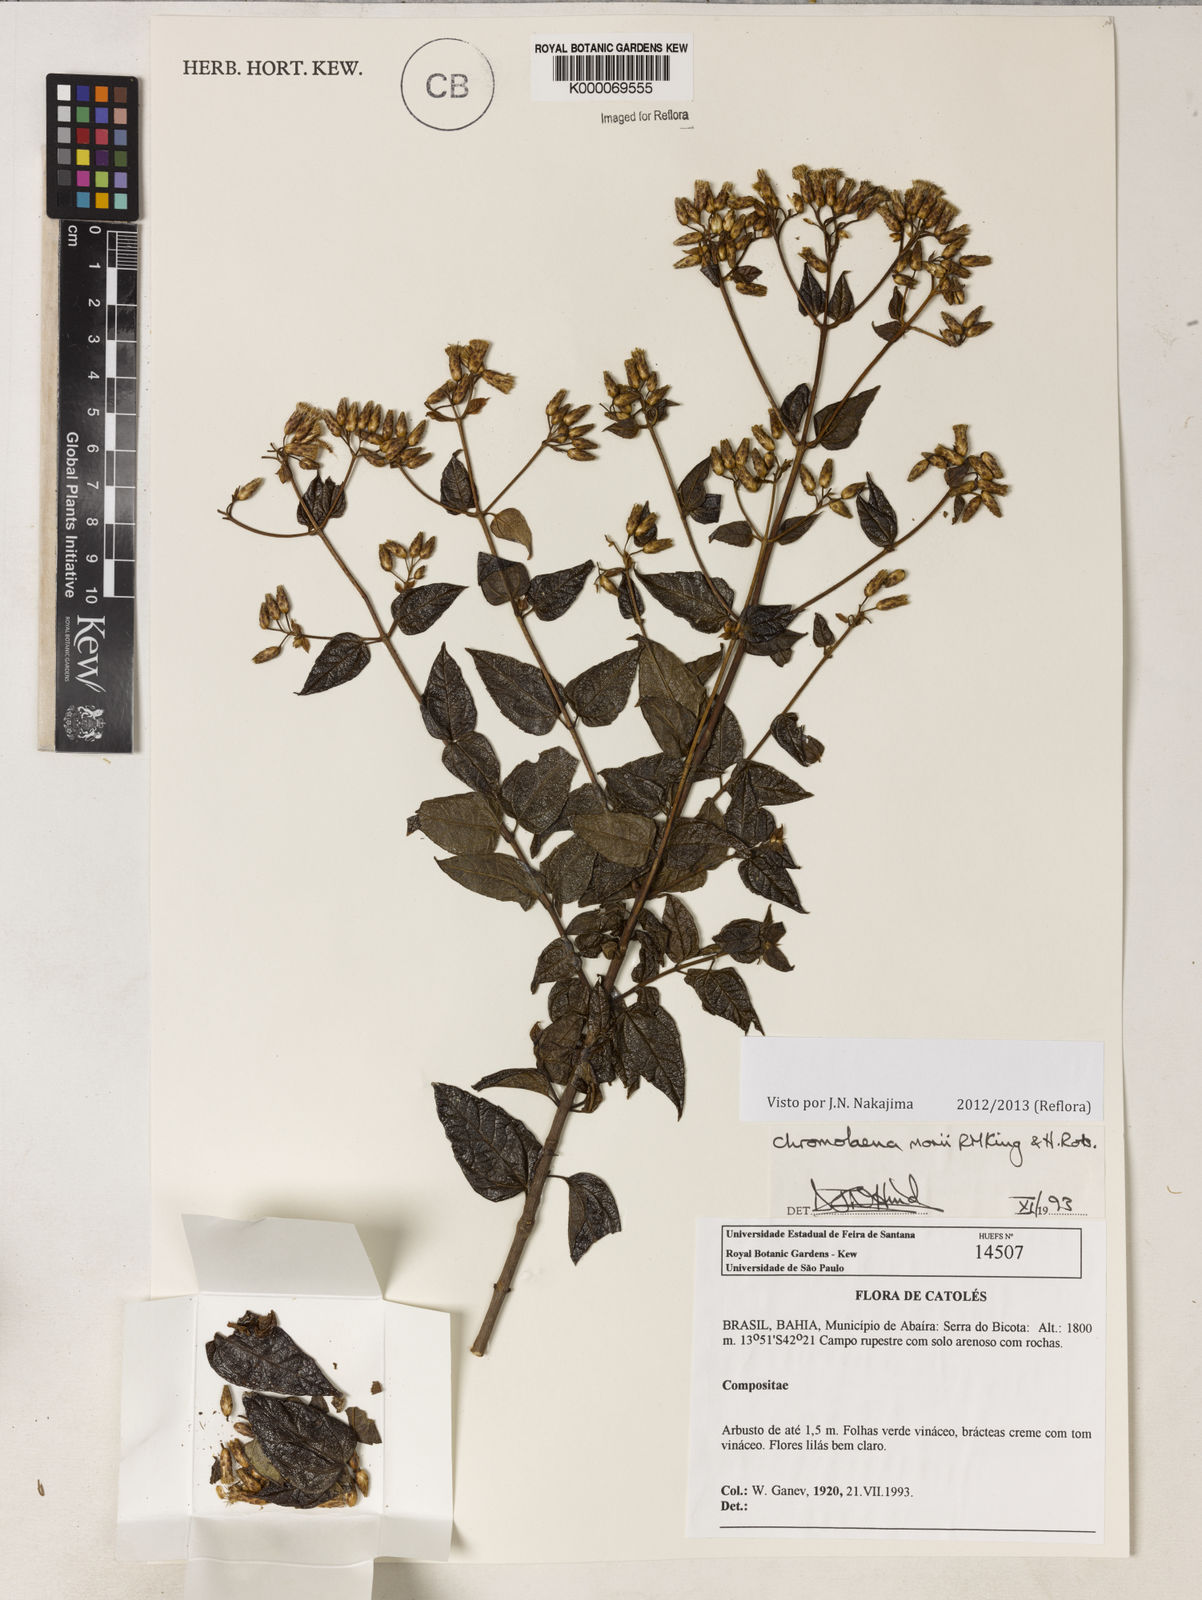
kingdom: Plantae
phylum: Tracheophyta
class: Magnoliopsida
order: Asterales
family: Asteraceae
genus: Chromolaena
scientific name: Chromolaena morii
